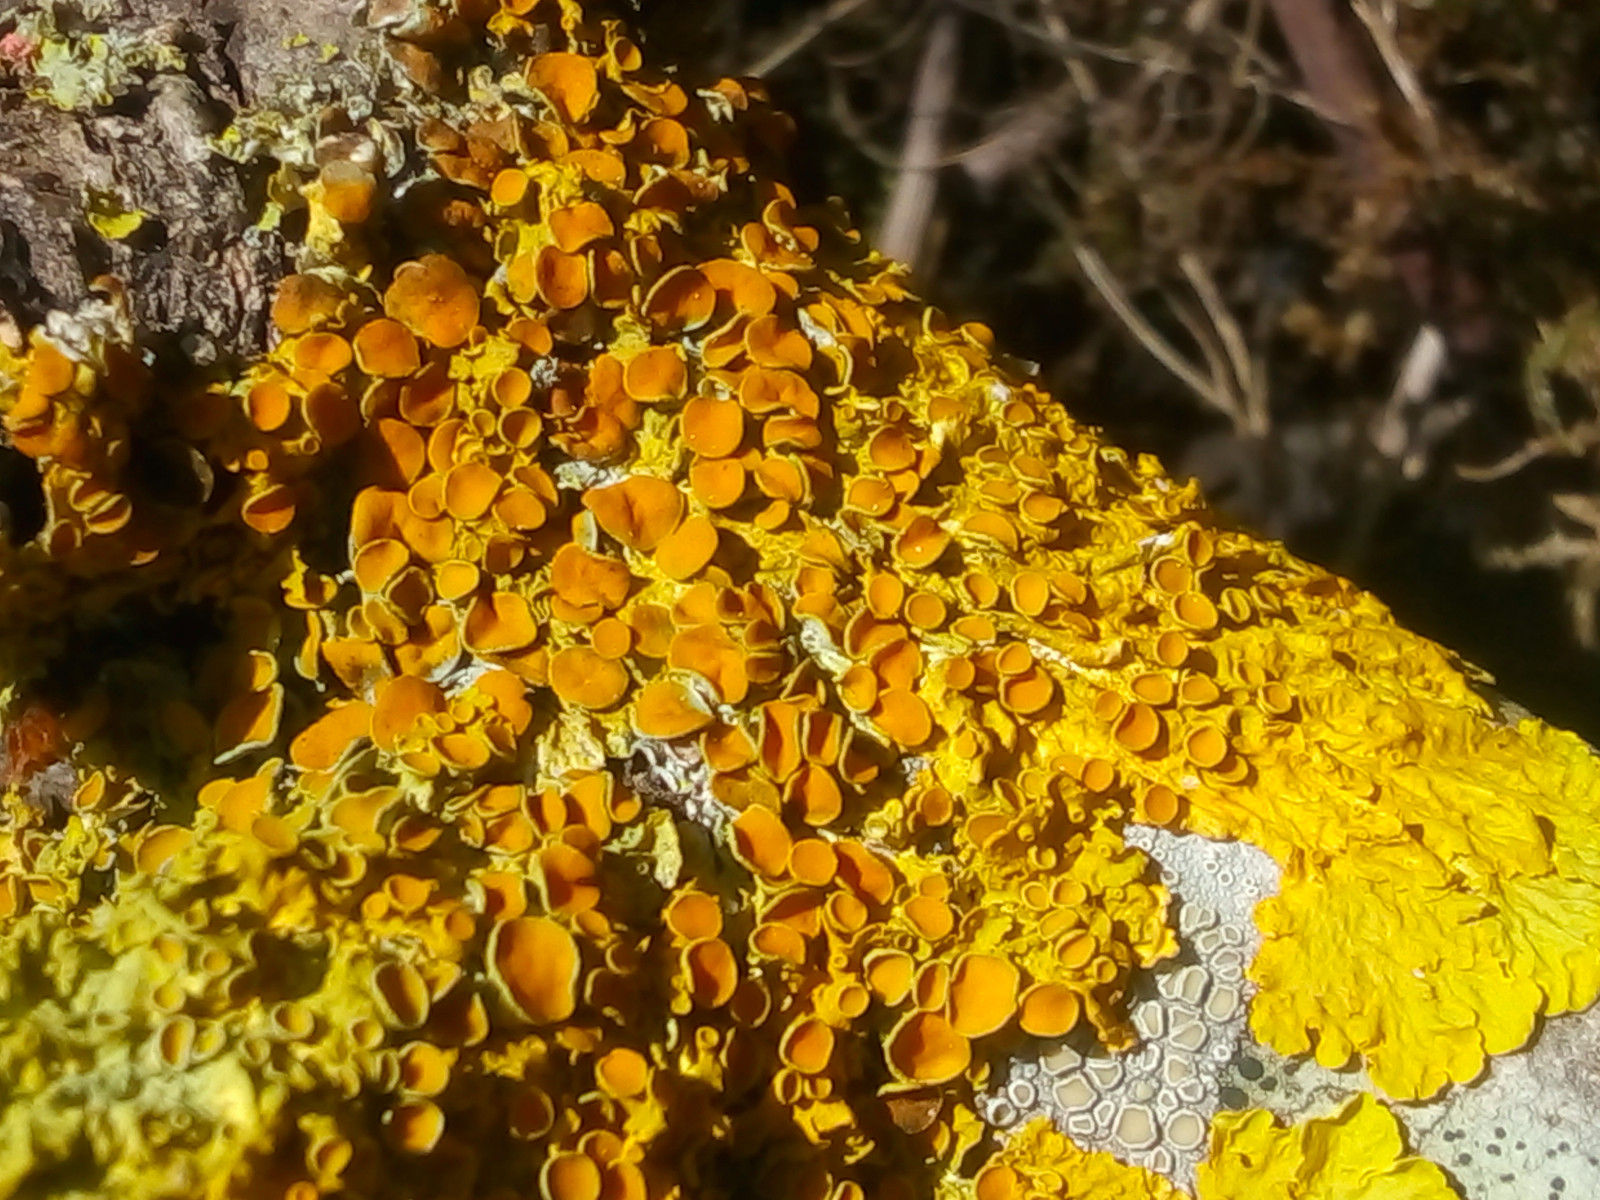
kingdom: Fungi
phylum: Ascomycota
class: Lecanoromycetes
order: Teloschistales
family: Teloschistaceae
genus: Xanthoria
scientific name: Xanthoria parietina
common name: almindelig væggelav
